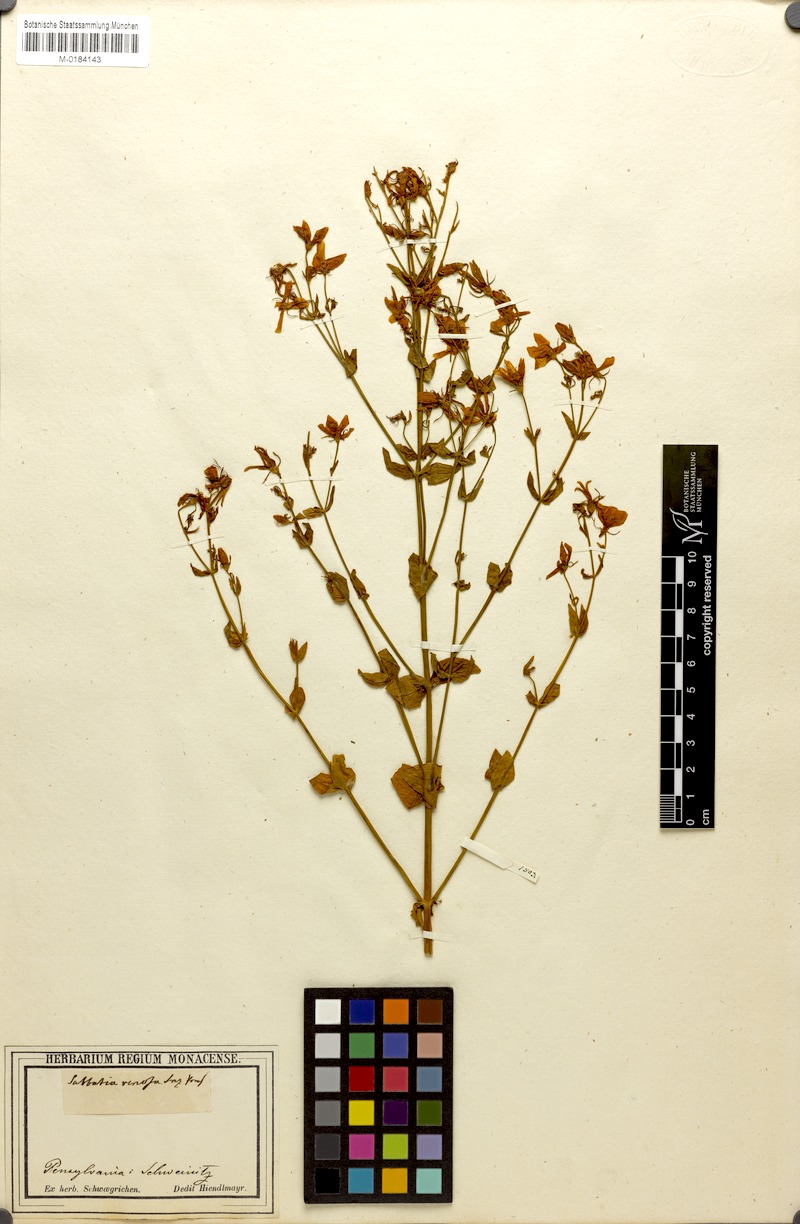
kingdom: Plantae
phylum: Tracheophyta
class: Magnoliopsida
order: Gentianales
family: Gentianaceae
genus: Sabatia
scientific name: Sabatia angularis
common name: Rose-pink
